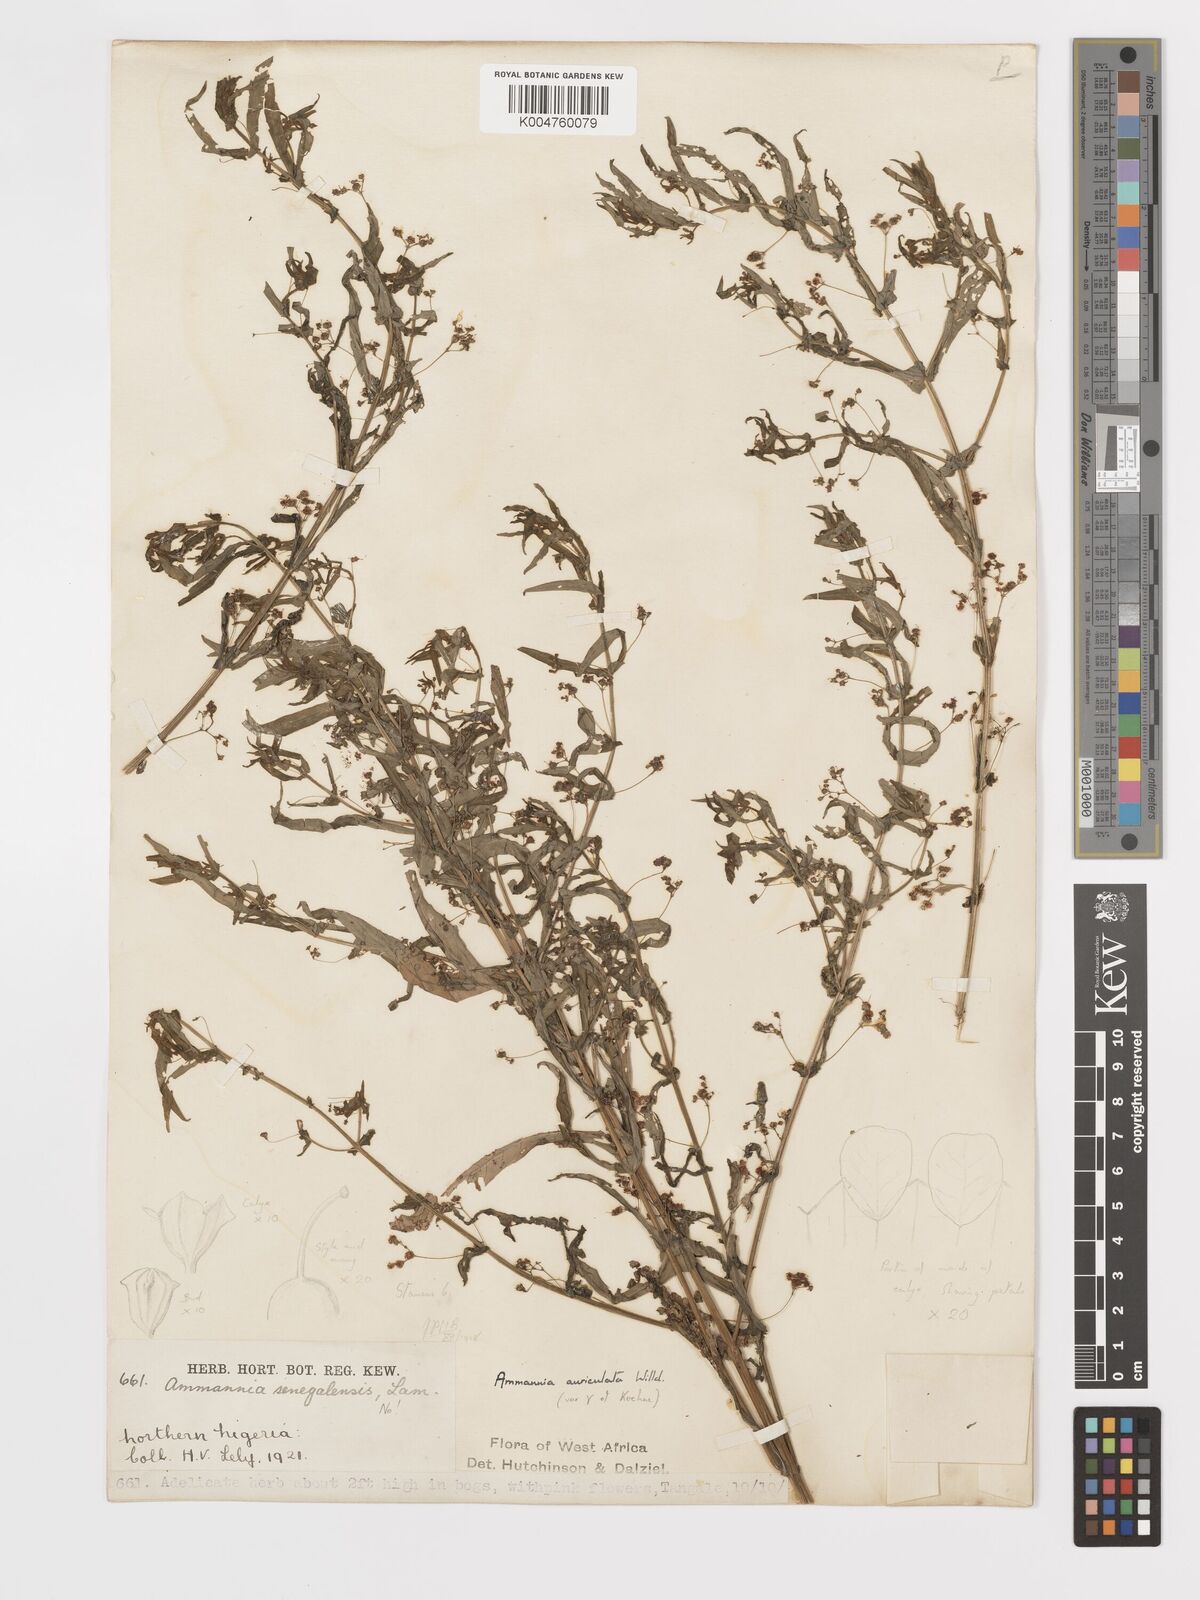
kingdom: Plantae
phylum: Tracheophyta
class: Magnoliopsida
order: Myrtales
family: Lythraceae
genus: Ammannia
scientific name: Ammannia auriculata
